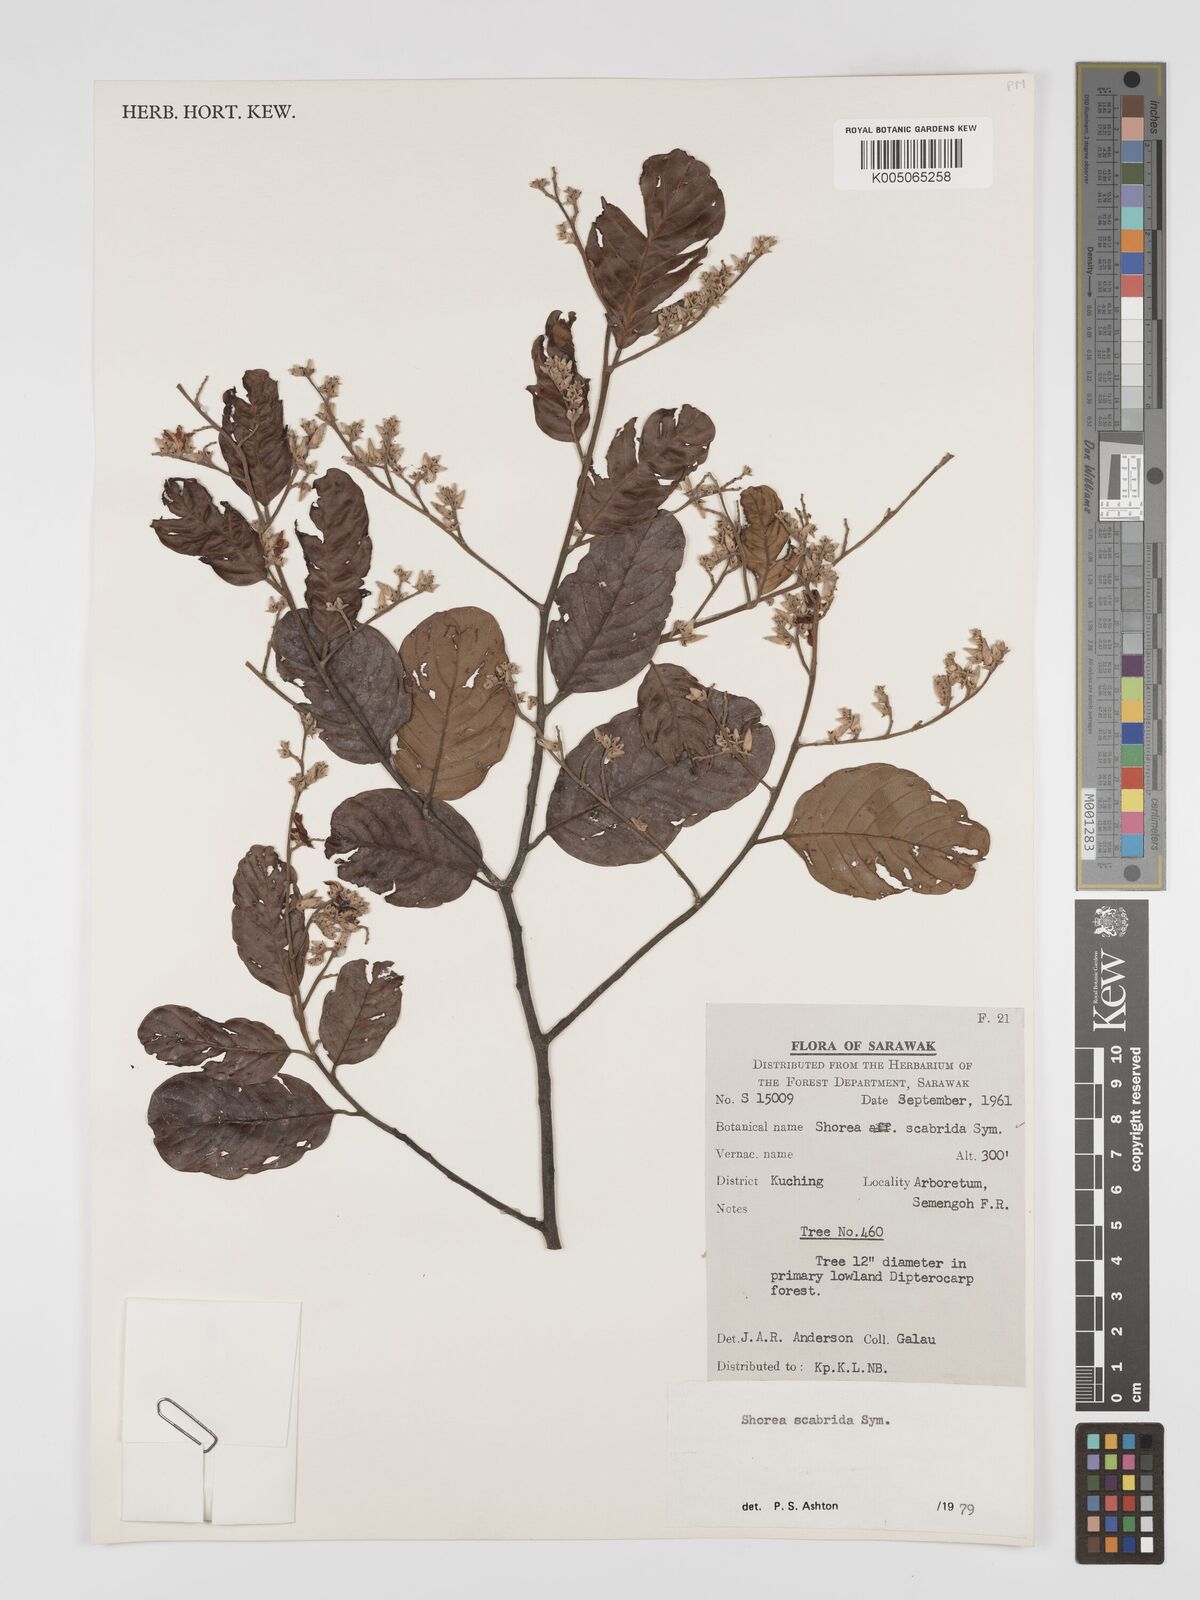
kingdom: Plantae
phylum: Tracheophyta
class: Magnoliopsida
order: Malvales
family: Dipterocarpaceae
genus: Shorea
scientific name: Shorea scabrida
